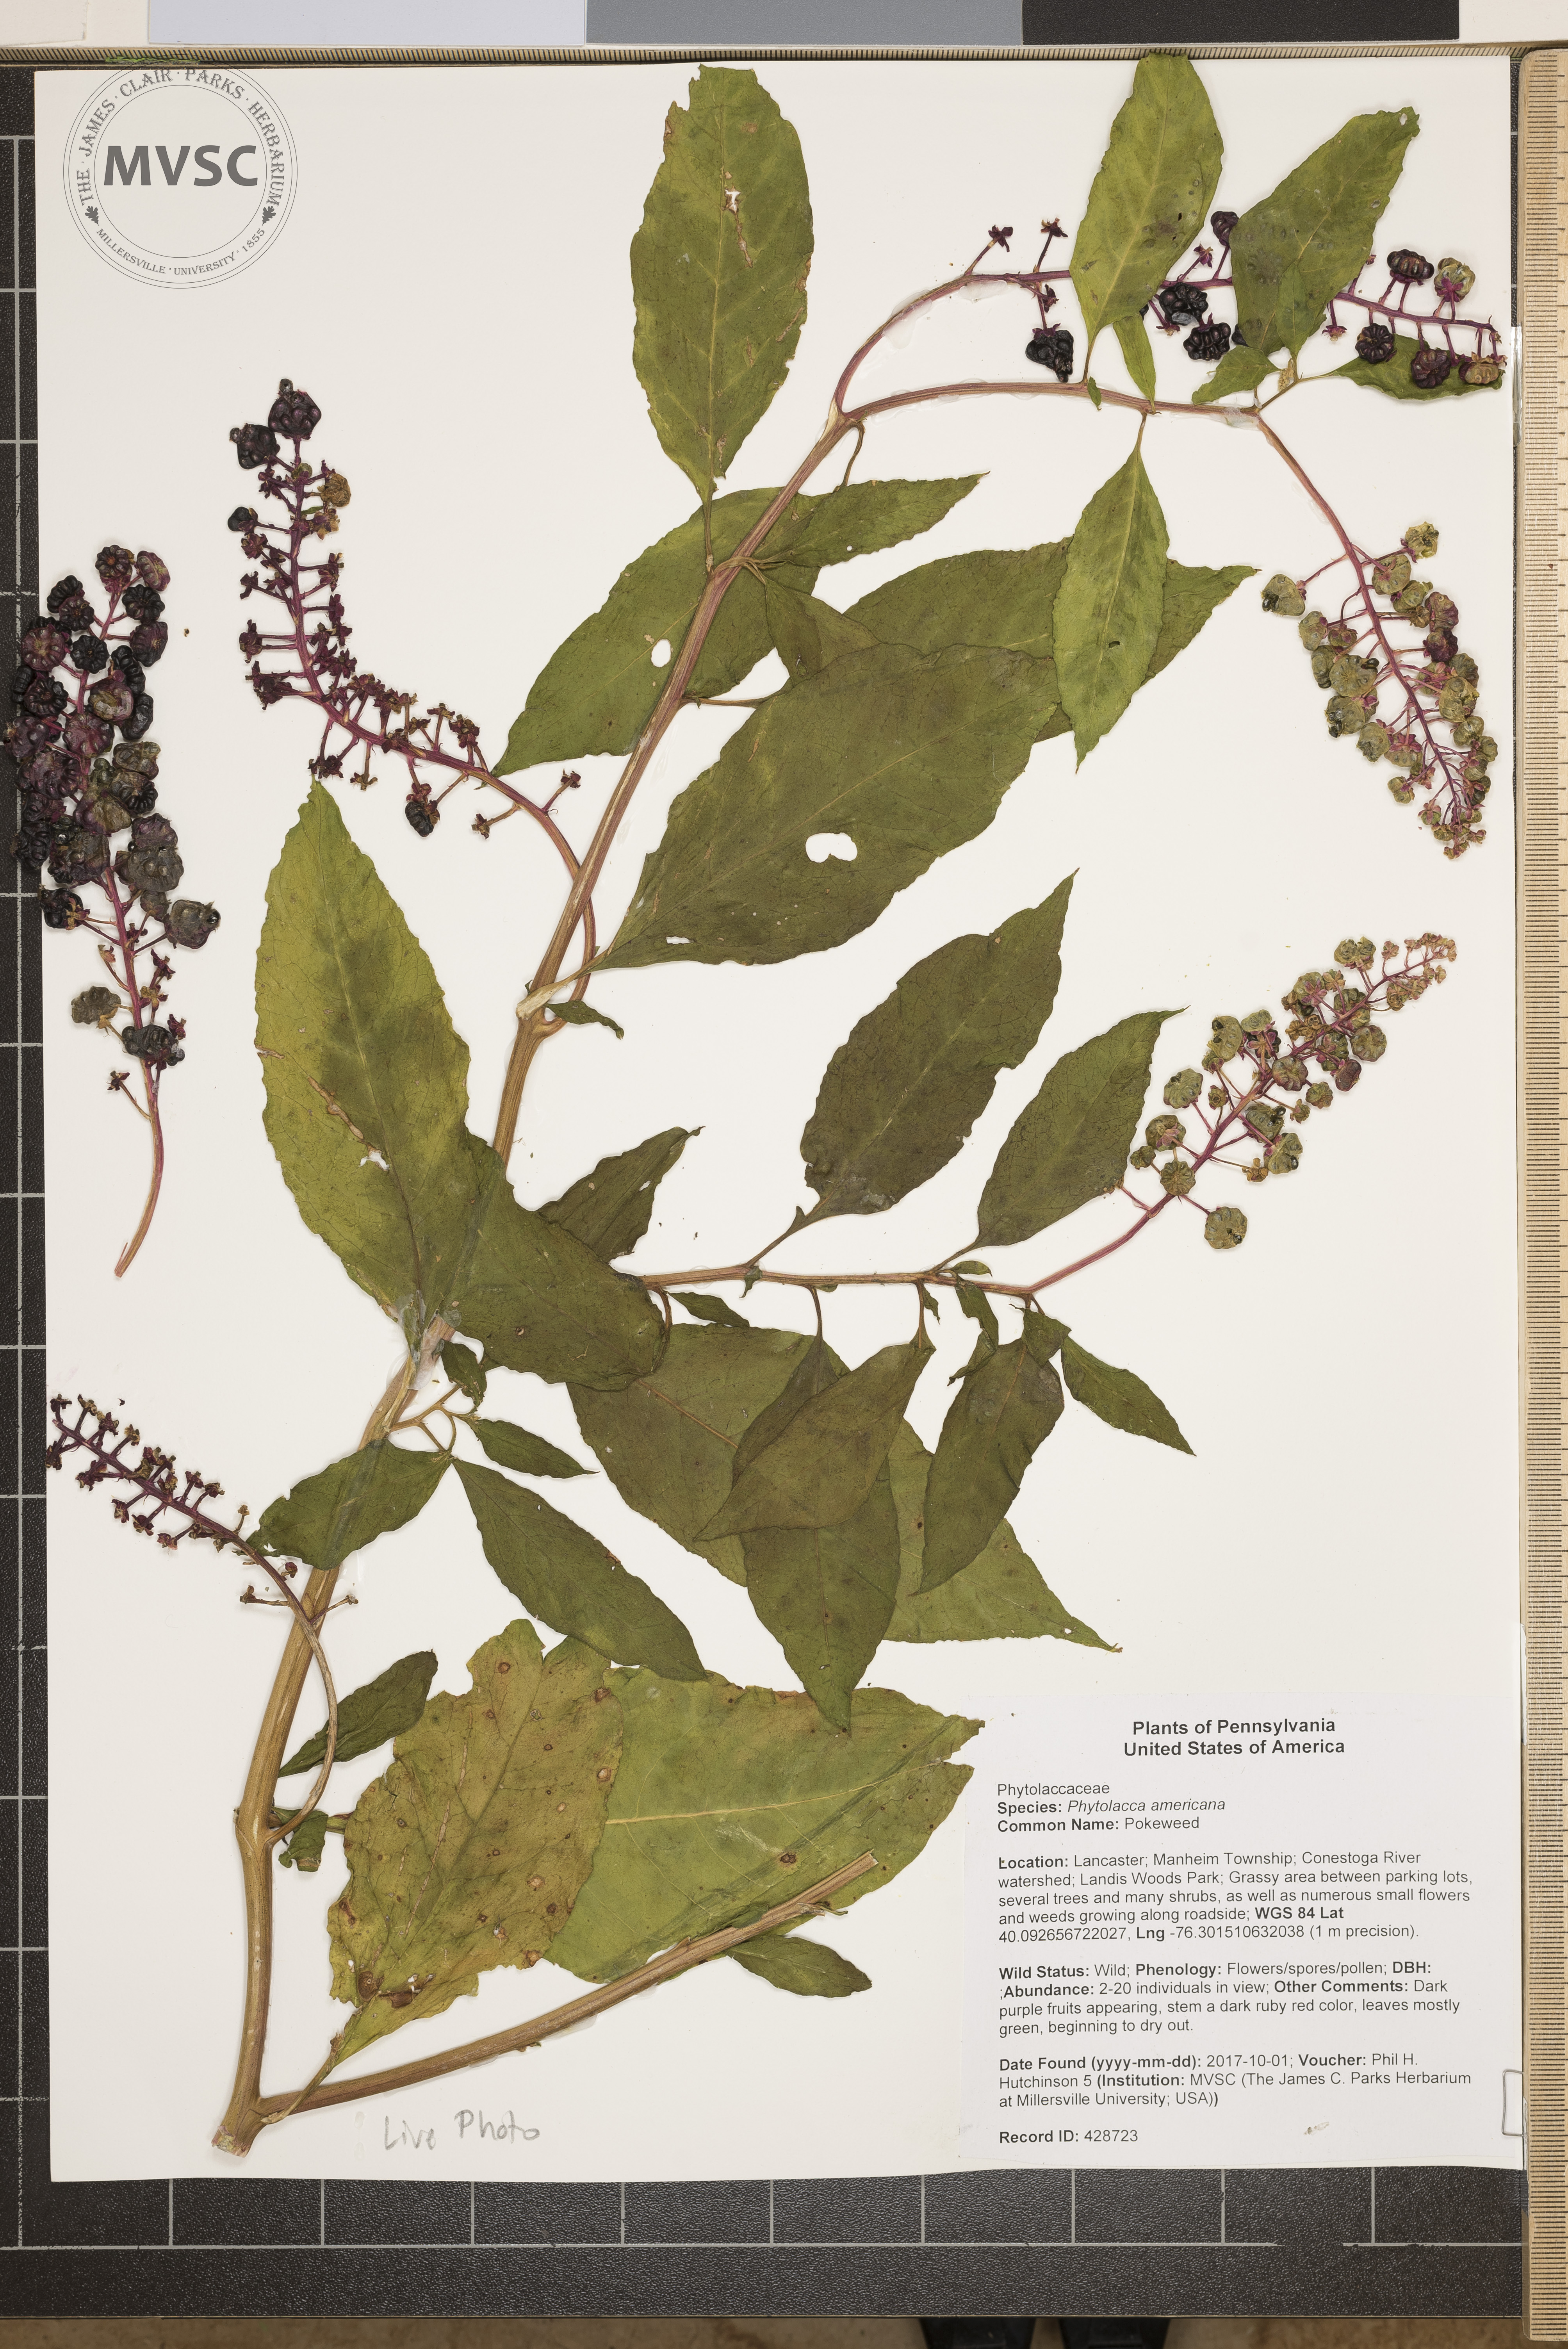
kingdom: Plantae
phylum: Tracheophyta
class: Magnoliopsida
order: Caryophyllales
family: Phytolaccaceae
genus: Phytolacca
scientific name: Phytolacca americana
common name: Pokeweed
